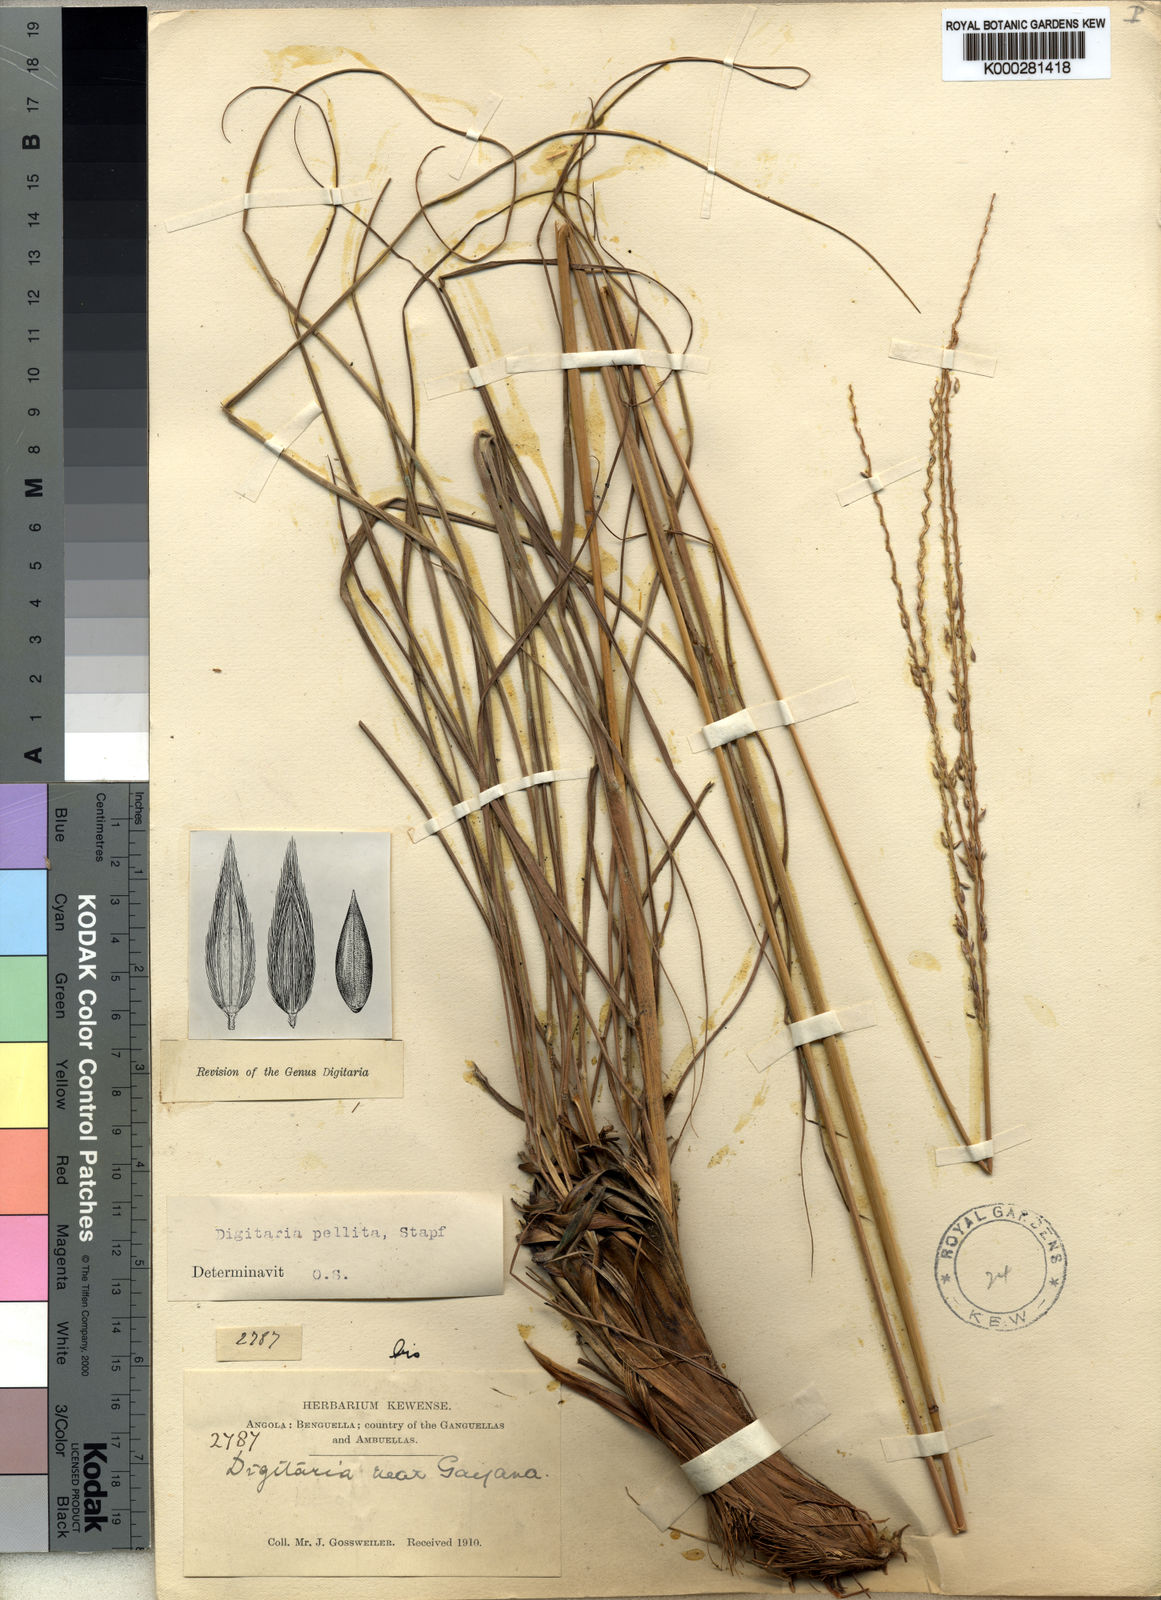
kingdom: Plantae
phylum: Tracheophyta
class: Liliopsida
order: Poales
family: Poaceae
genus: Digitaria
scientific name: Digitaria pellita
